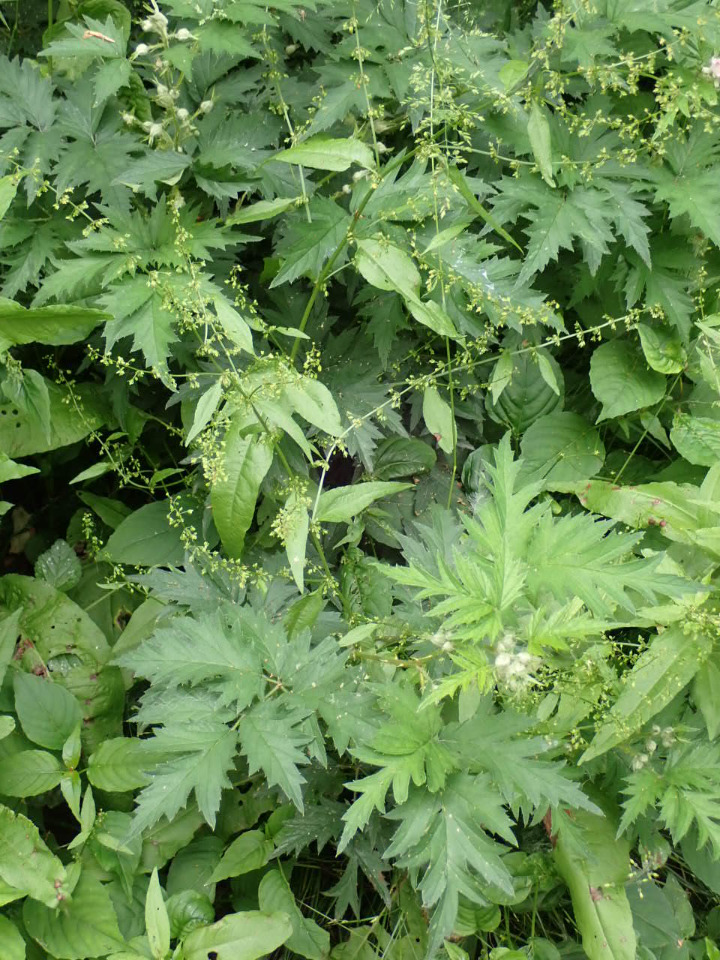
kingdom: Plantae
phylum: Tracheophyta
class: Magnoliopsida
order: Rosales
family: Rosaceae
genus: Rubus
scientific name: Rubus laciniatus
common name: Fliget brombær
